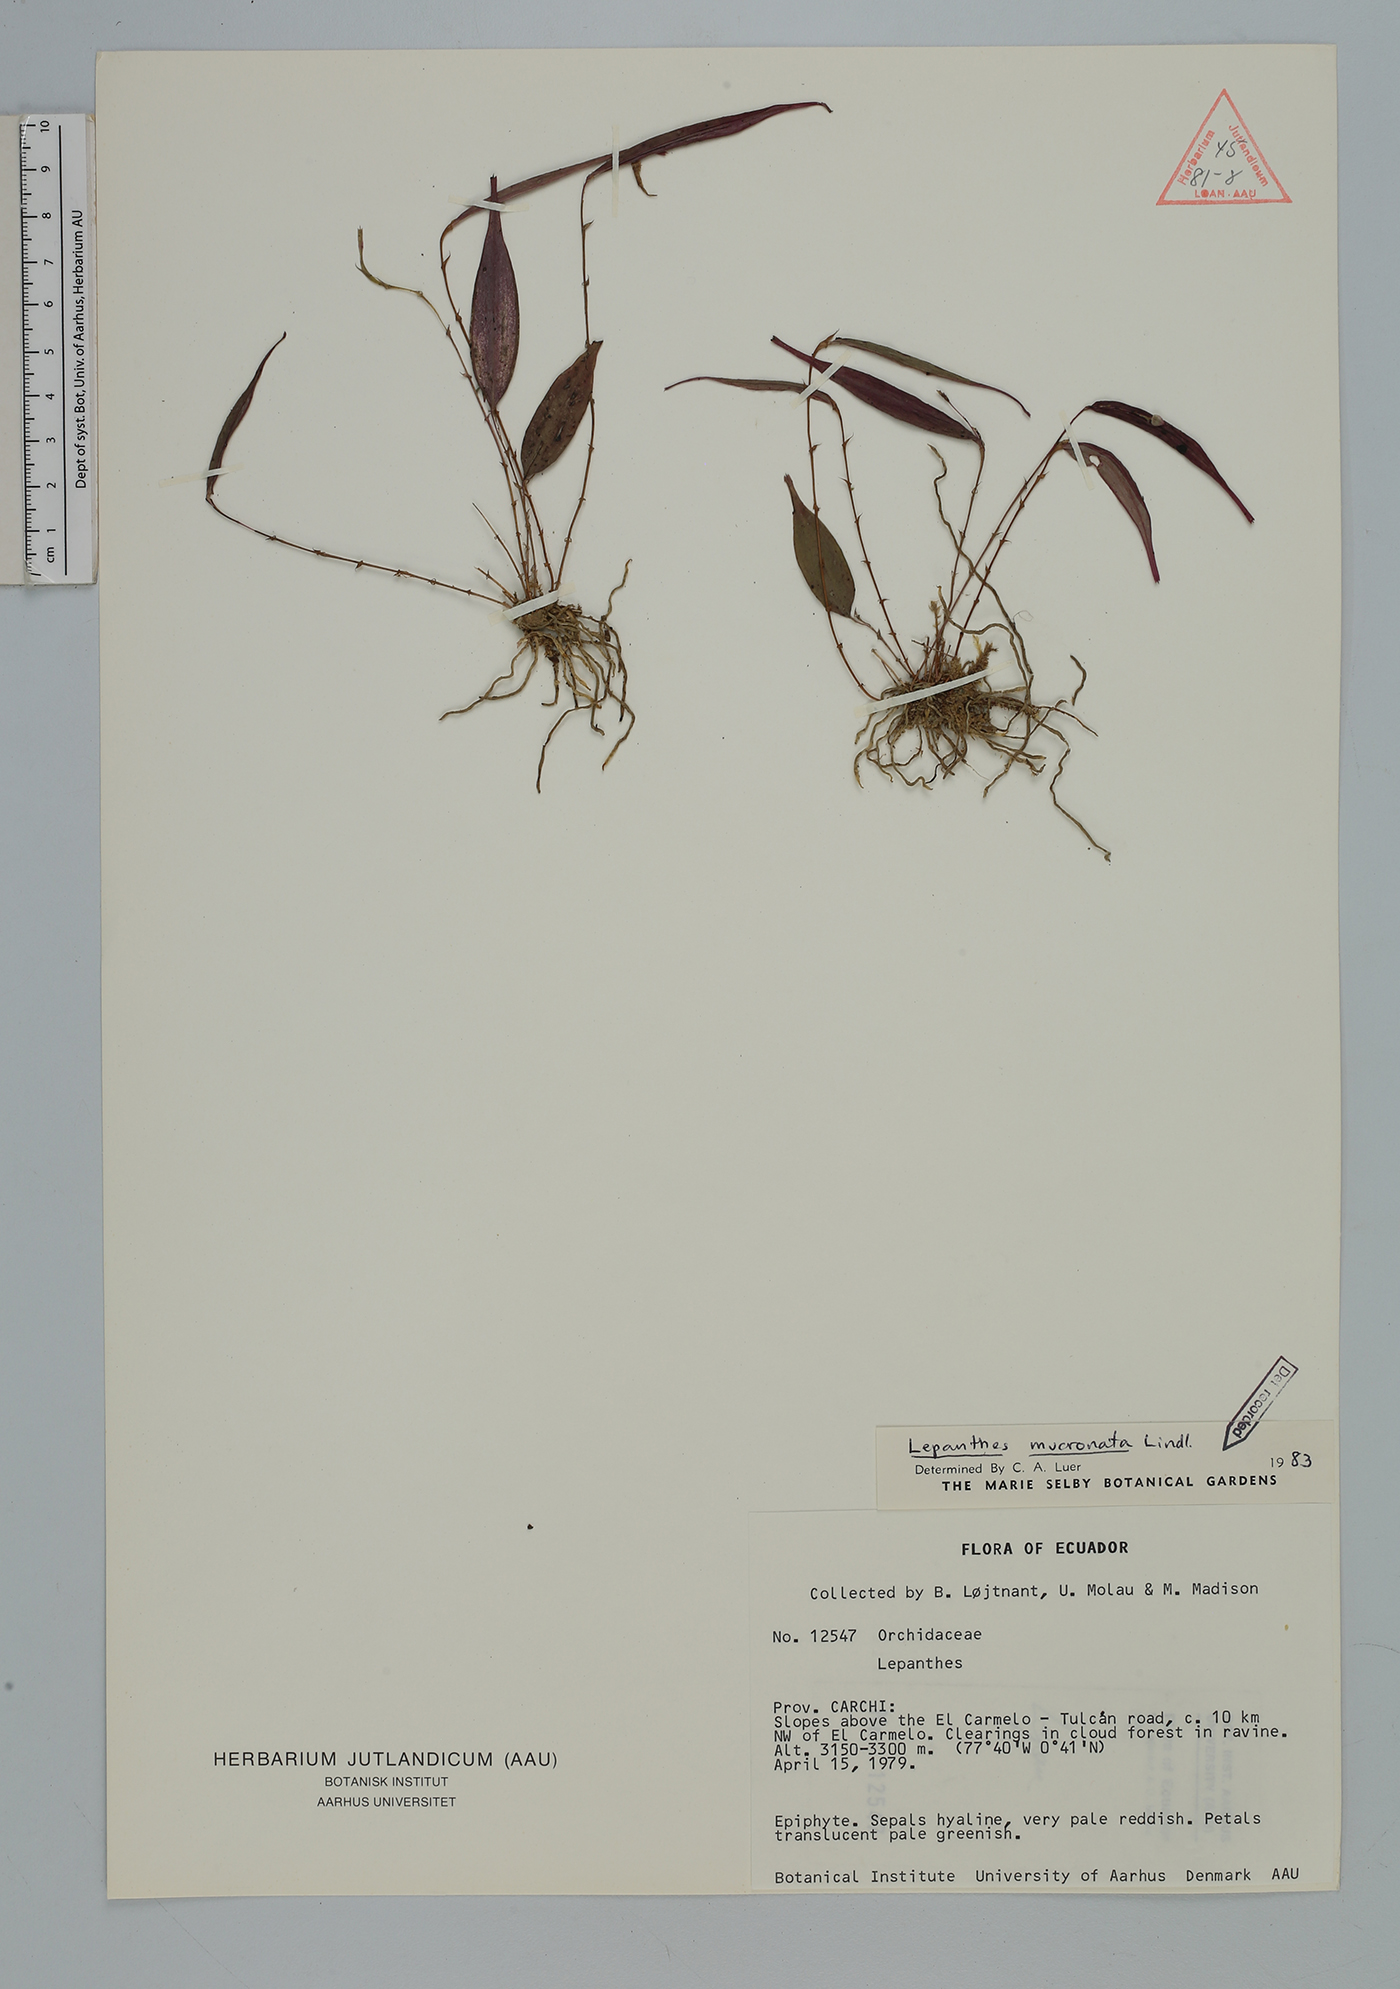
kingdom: Plantae
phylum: Tracheophyta
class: Liliopsida
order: Asparagales
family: Orchidaceae
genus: Lepanthes
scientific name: Lepanthes mucronata
